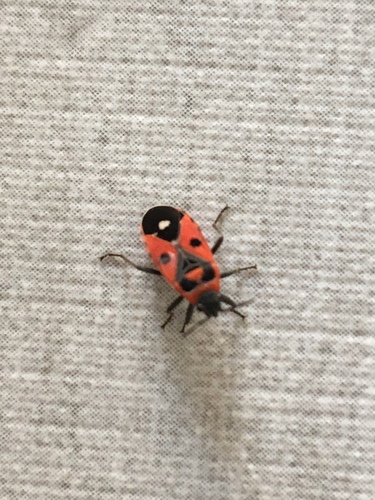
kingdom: Animalia
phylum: Arthropoda
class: Insecta
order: Hemiptera
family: Lygaeidae
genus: Melanocoryphus
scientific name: Melanocoryphus albomaculatus
